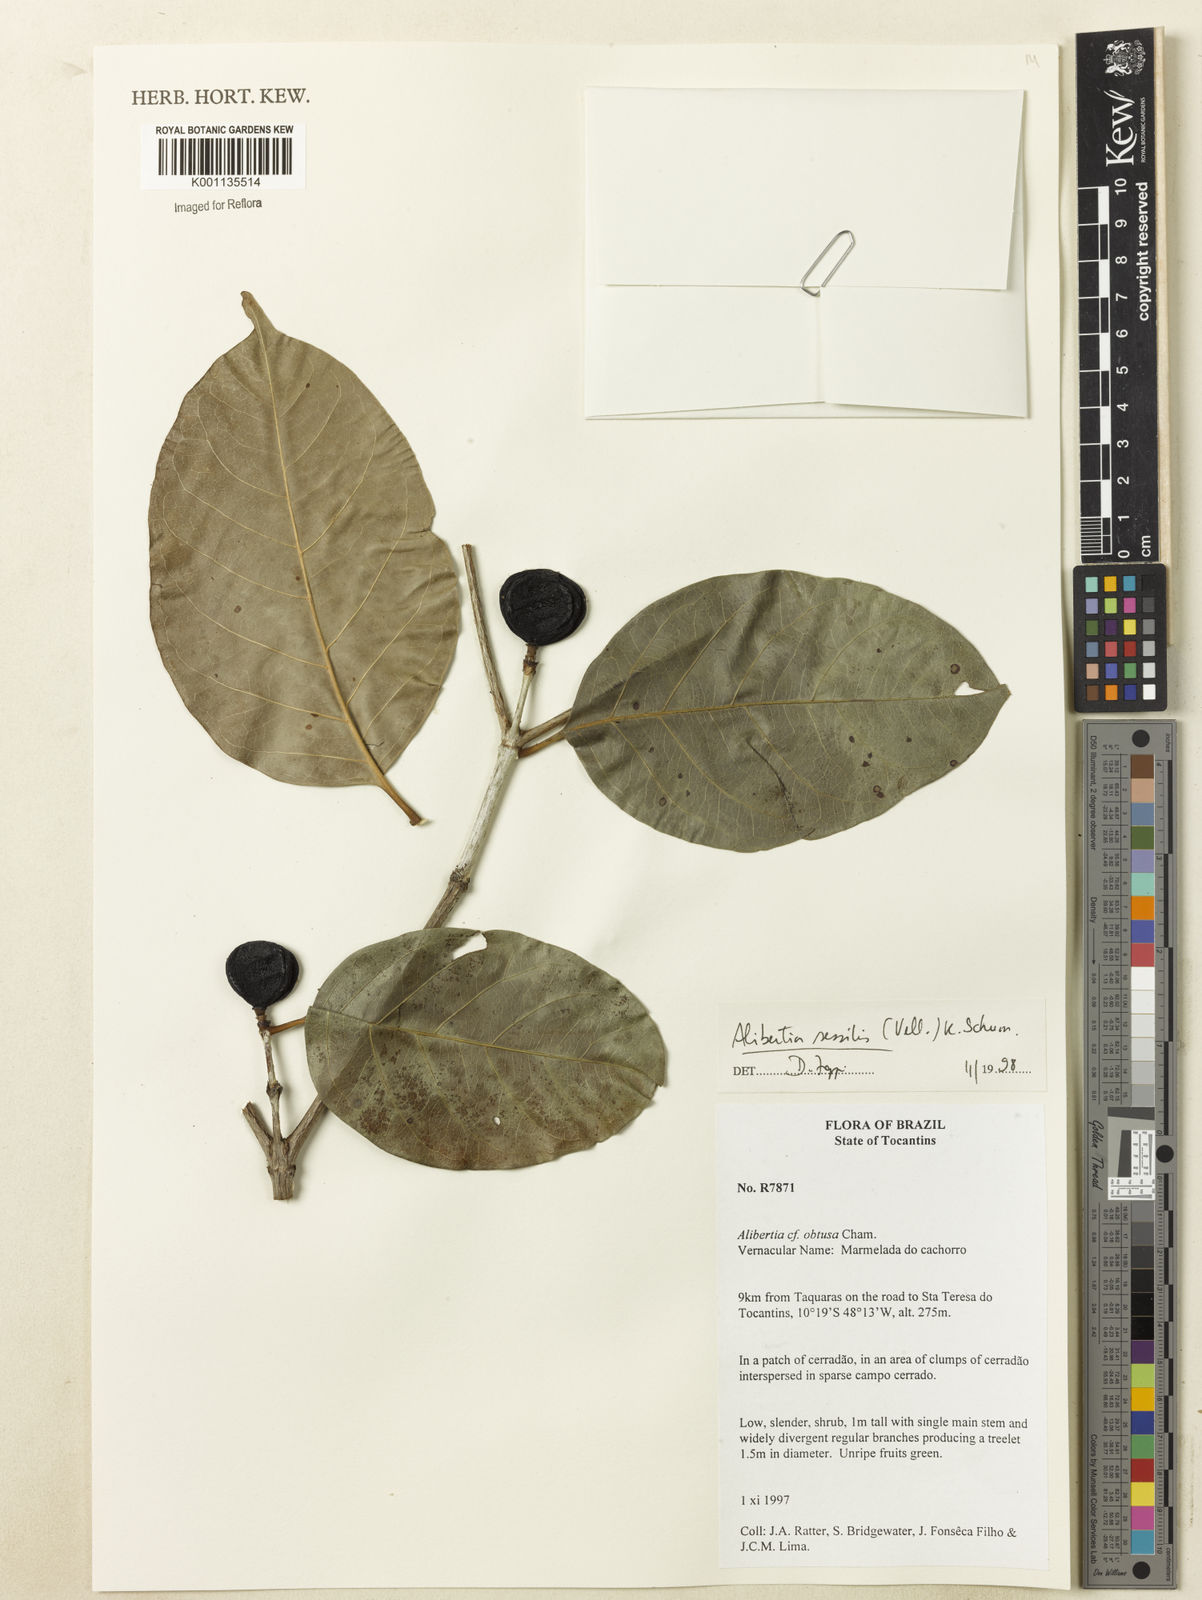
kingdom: Plantae
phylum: Tracheophyta
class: Magnoliopsida
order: Gentianales
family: Rubiaceae
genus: Cordiera
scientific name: Cordiera sessilis
